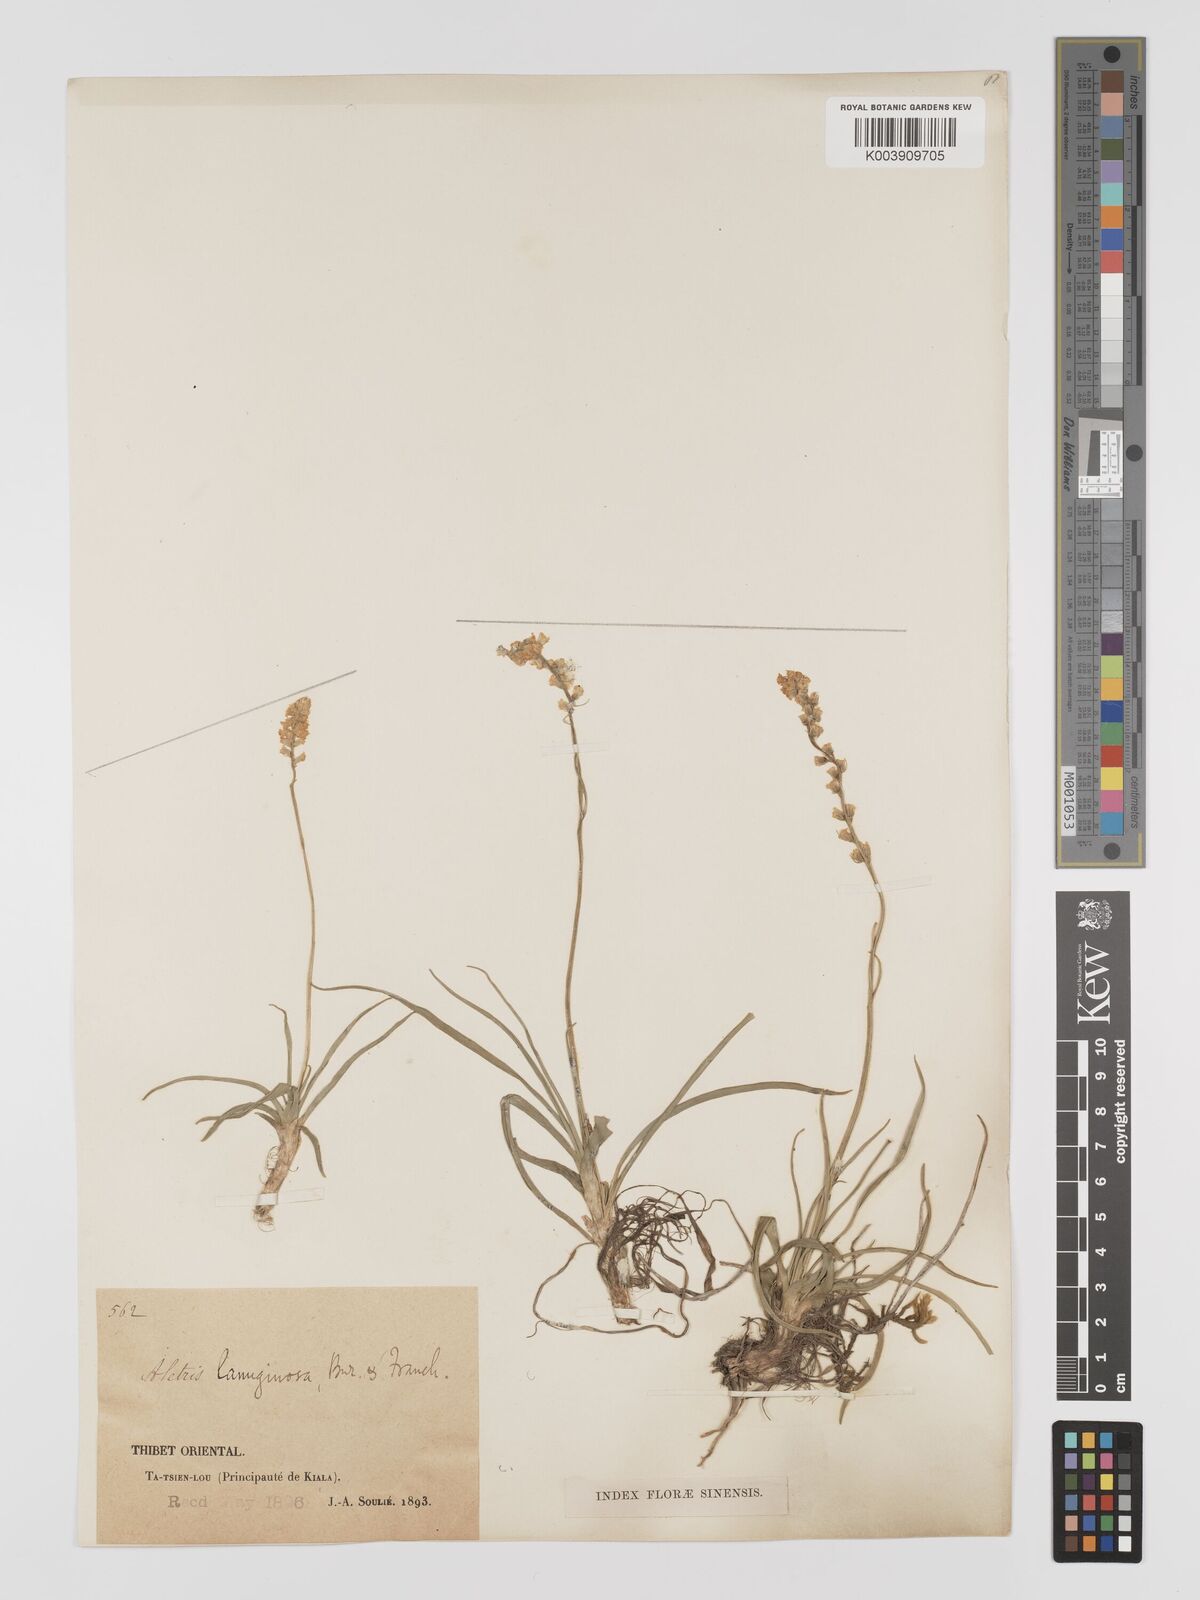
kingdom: Plantae
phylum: Tracheophyta
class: Liliopsida
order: Dioscoreales
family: Nartheciaceae
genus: Aletris
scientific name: Aletris pauciflora
